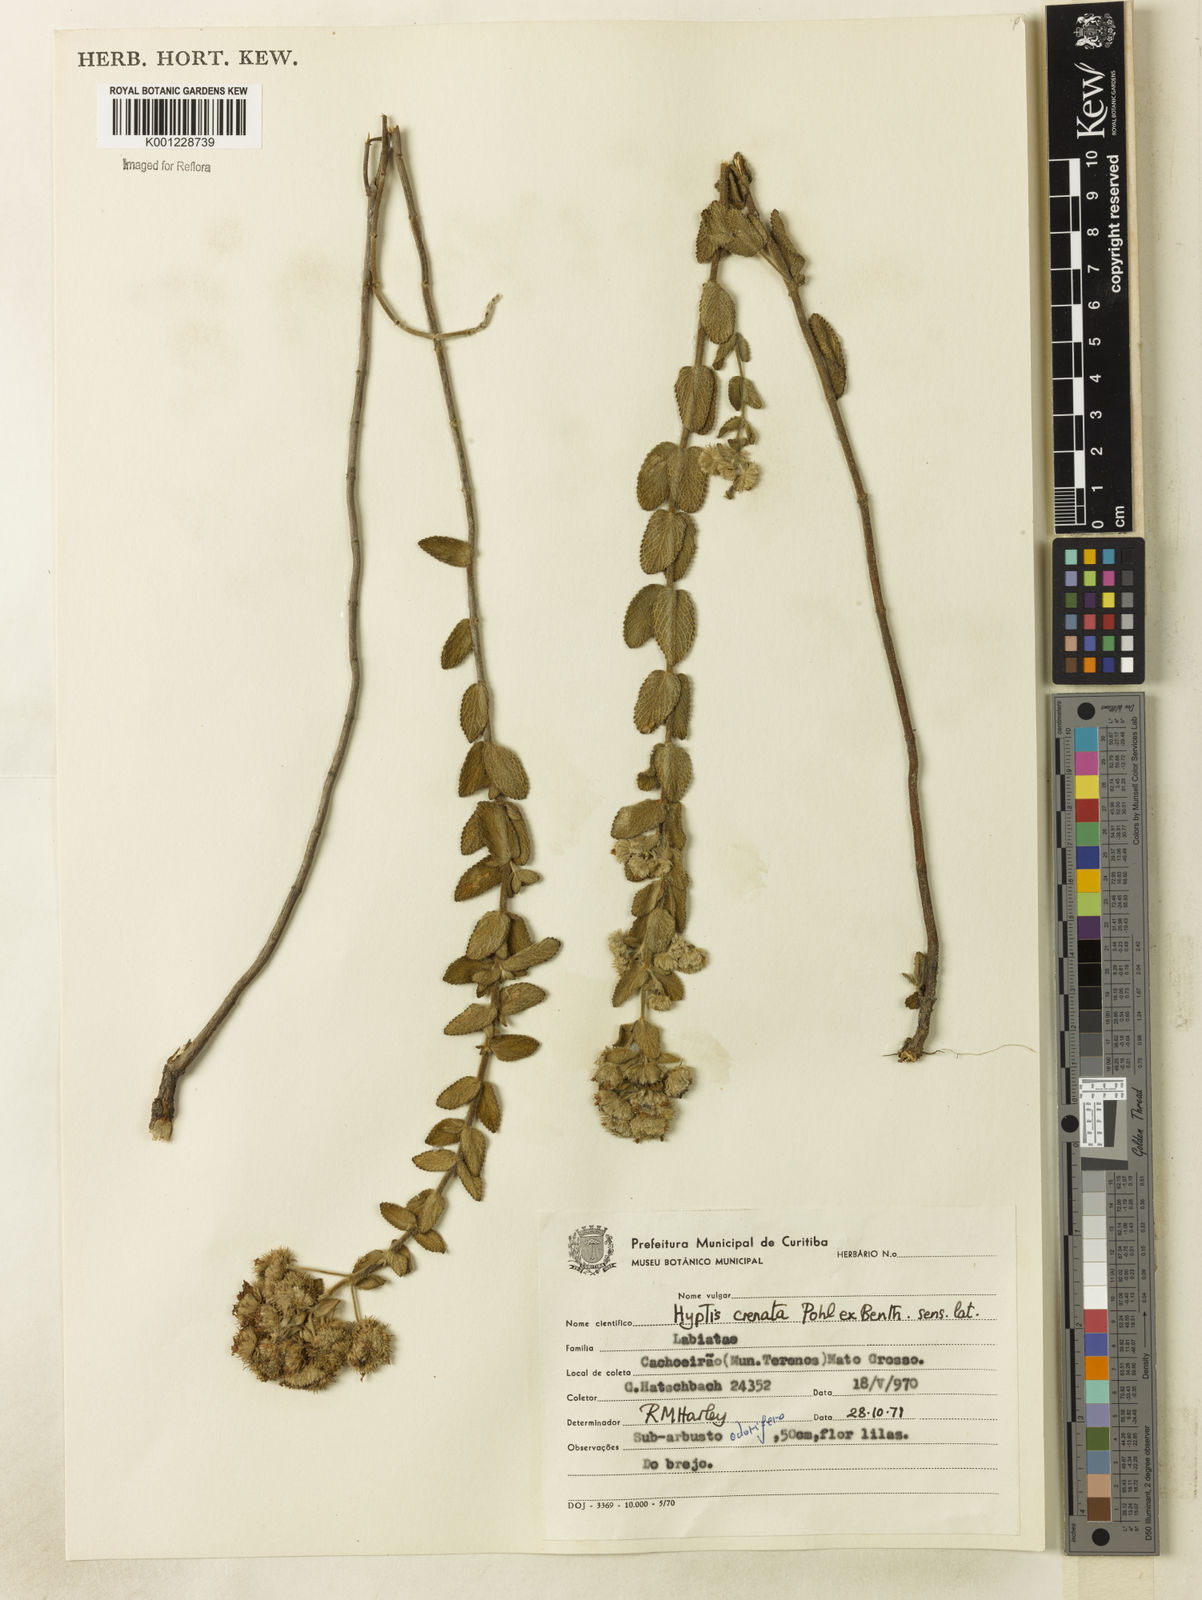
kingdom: Plantae
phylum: Tracheophyta
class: Magnoliopsida
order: Lamiales
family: Lamiaceae
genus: Hyptis
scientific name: Hyptis crenata
